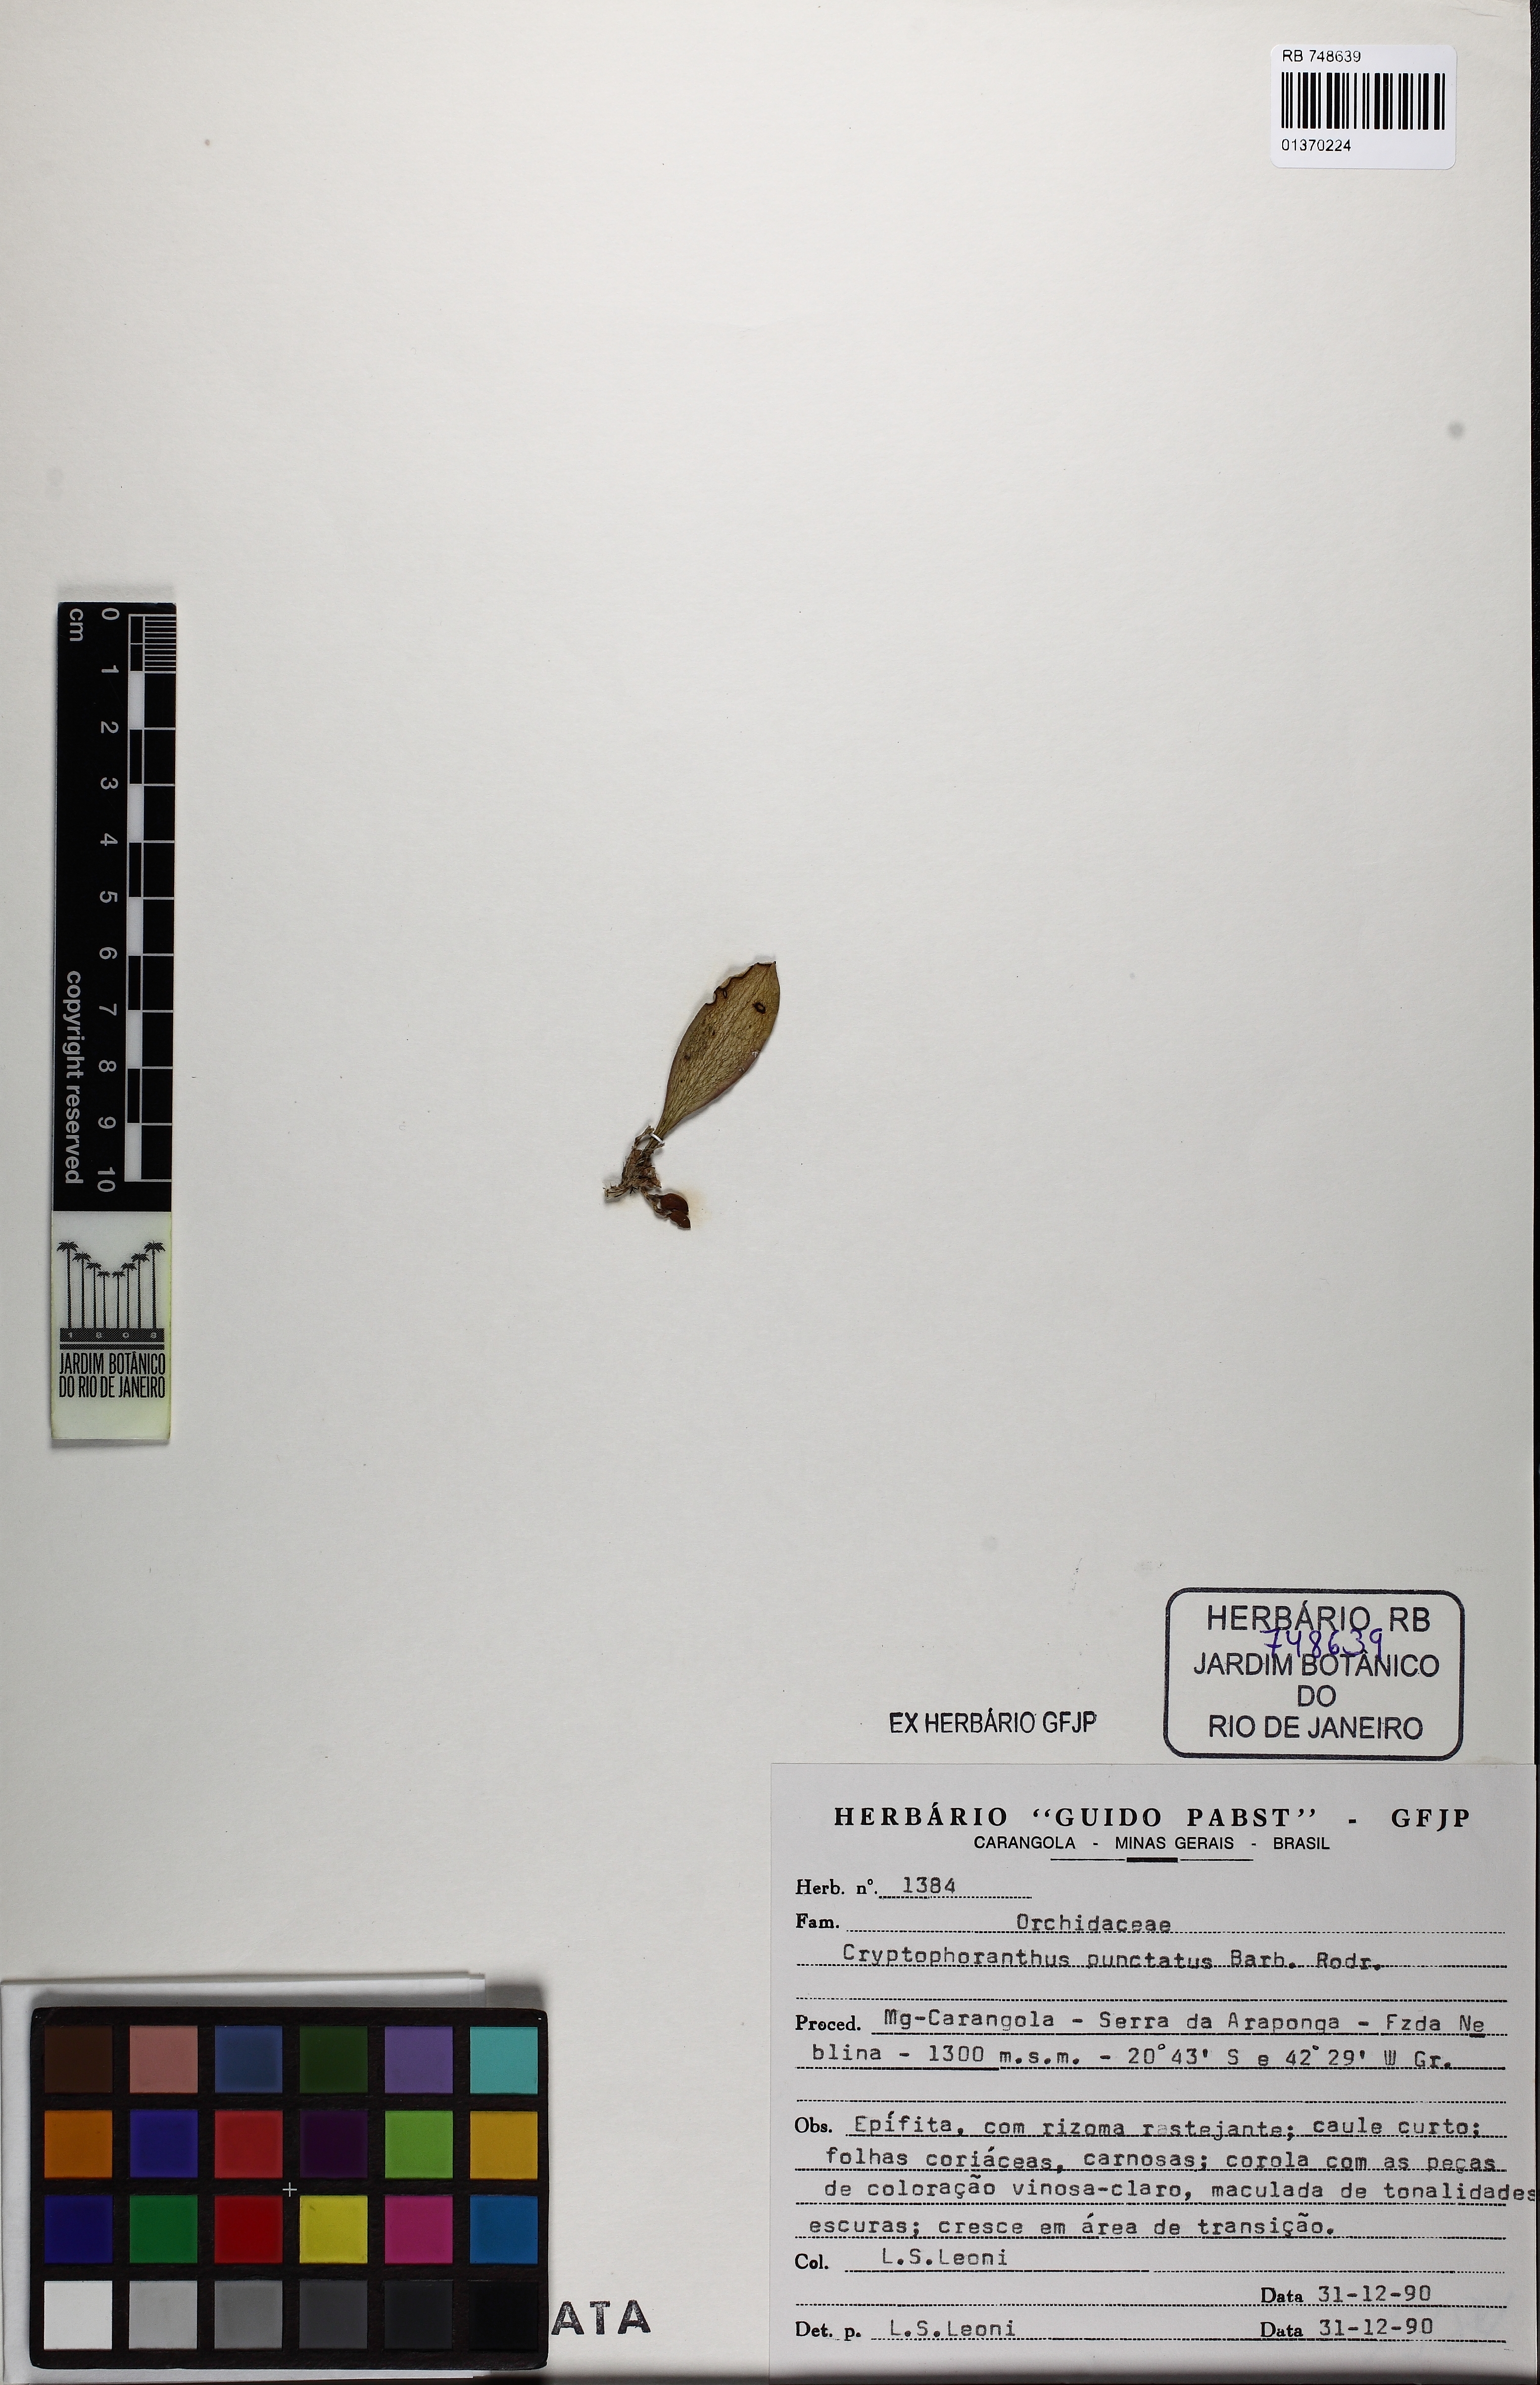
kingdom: Plantae
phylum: Tracheophyta
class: Liliopsida
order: Asparagales
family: Orchidaceae
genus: Acianthera
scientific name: Acianthera punctatiflora
